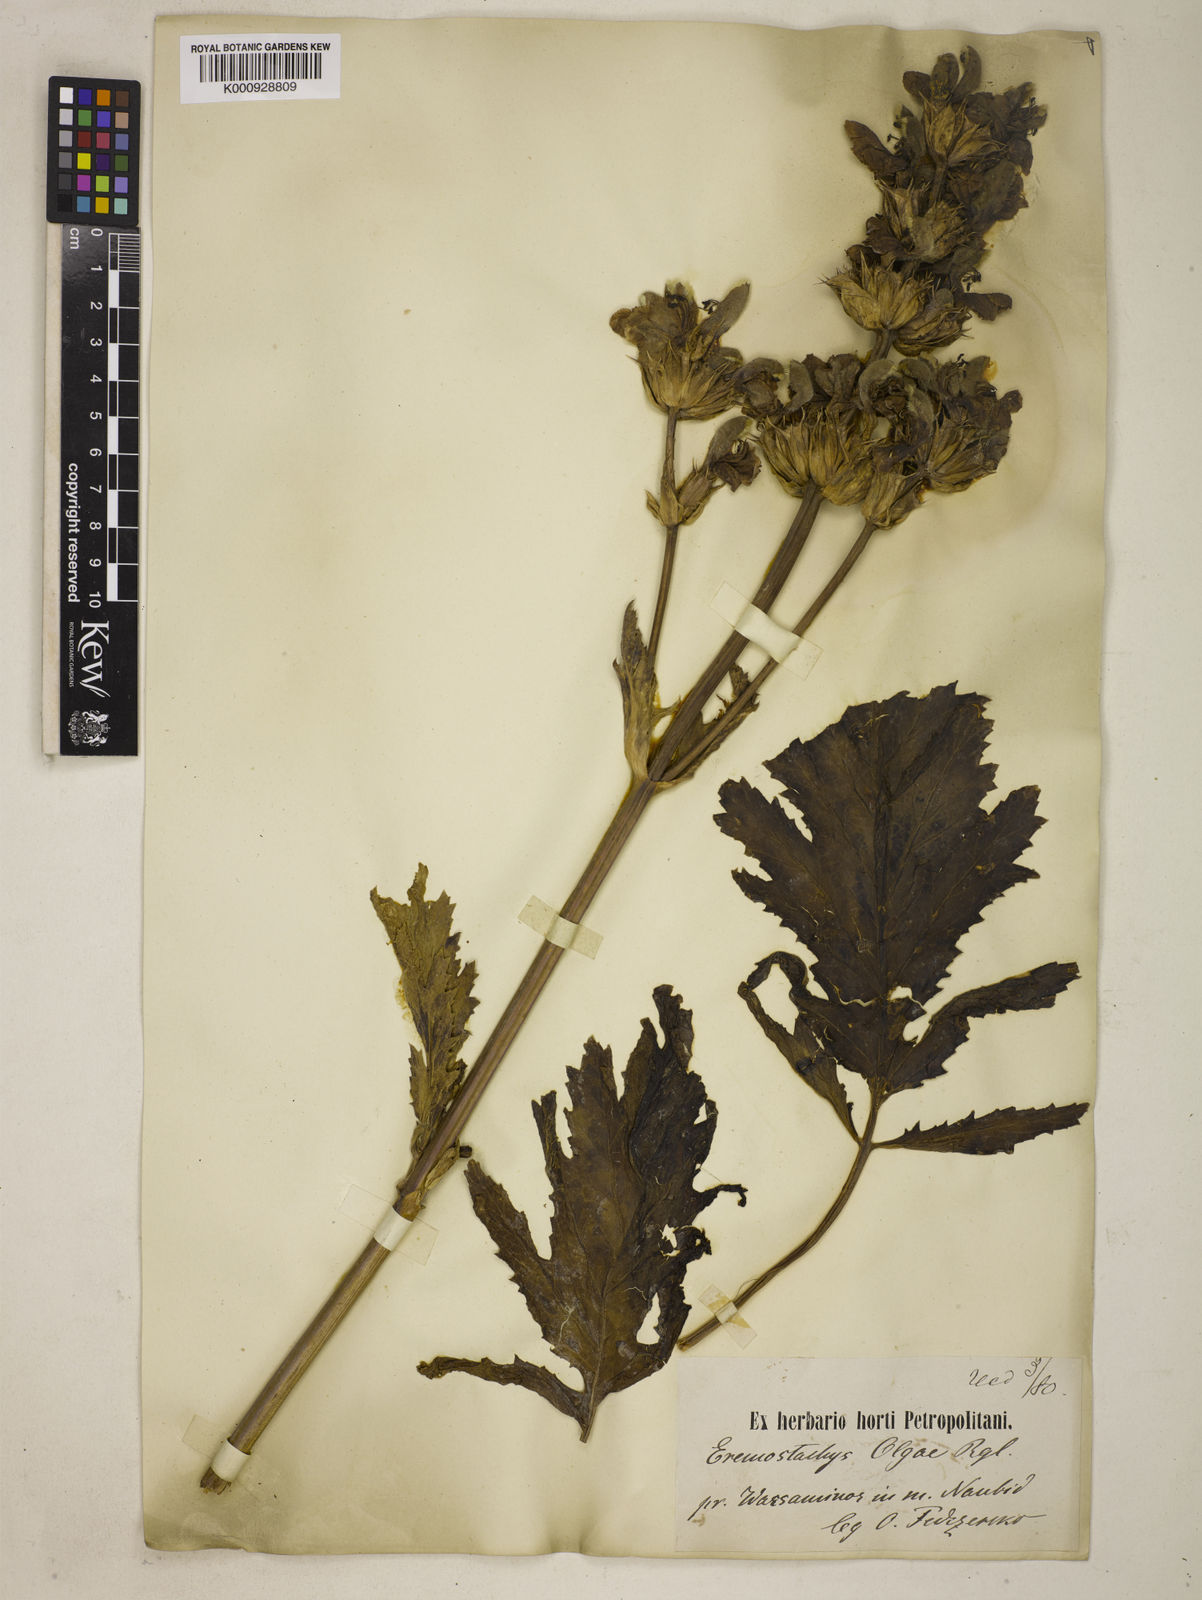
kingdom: Plantae
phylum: Tracheophyta
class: Magnoliopsida
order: Lamiales
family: Lamiaceae
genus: Phlomoides
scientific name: Phlomoides lehmanniana
